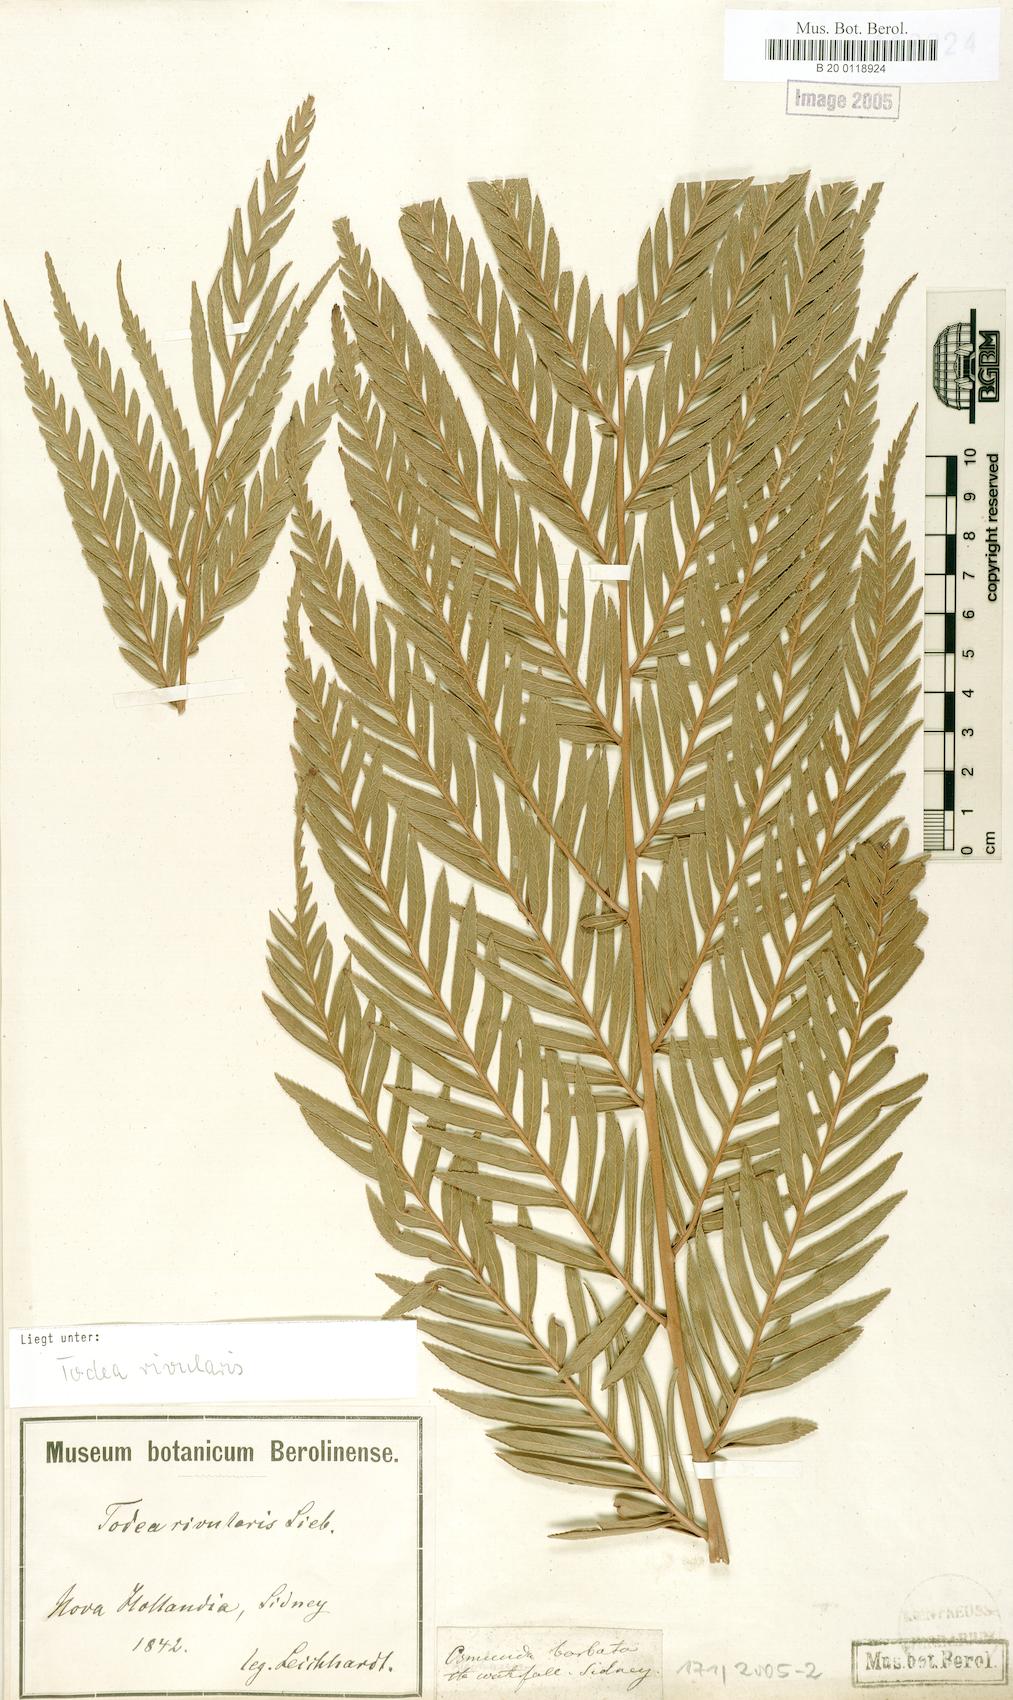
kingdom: Plantae
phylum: Tracheophyta
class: Polypodiopsida
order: Osmundales
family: Osmundaceae
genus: Todea
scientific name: Todea barbara
